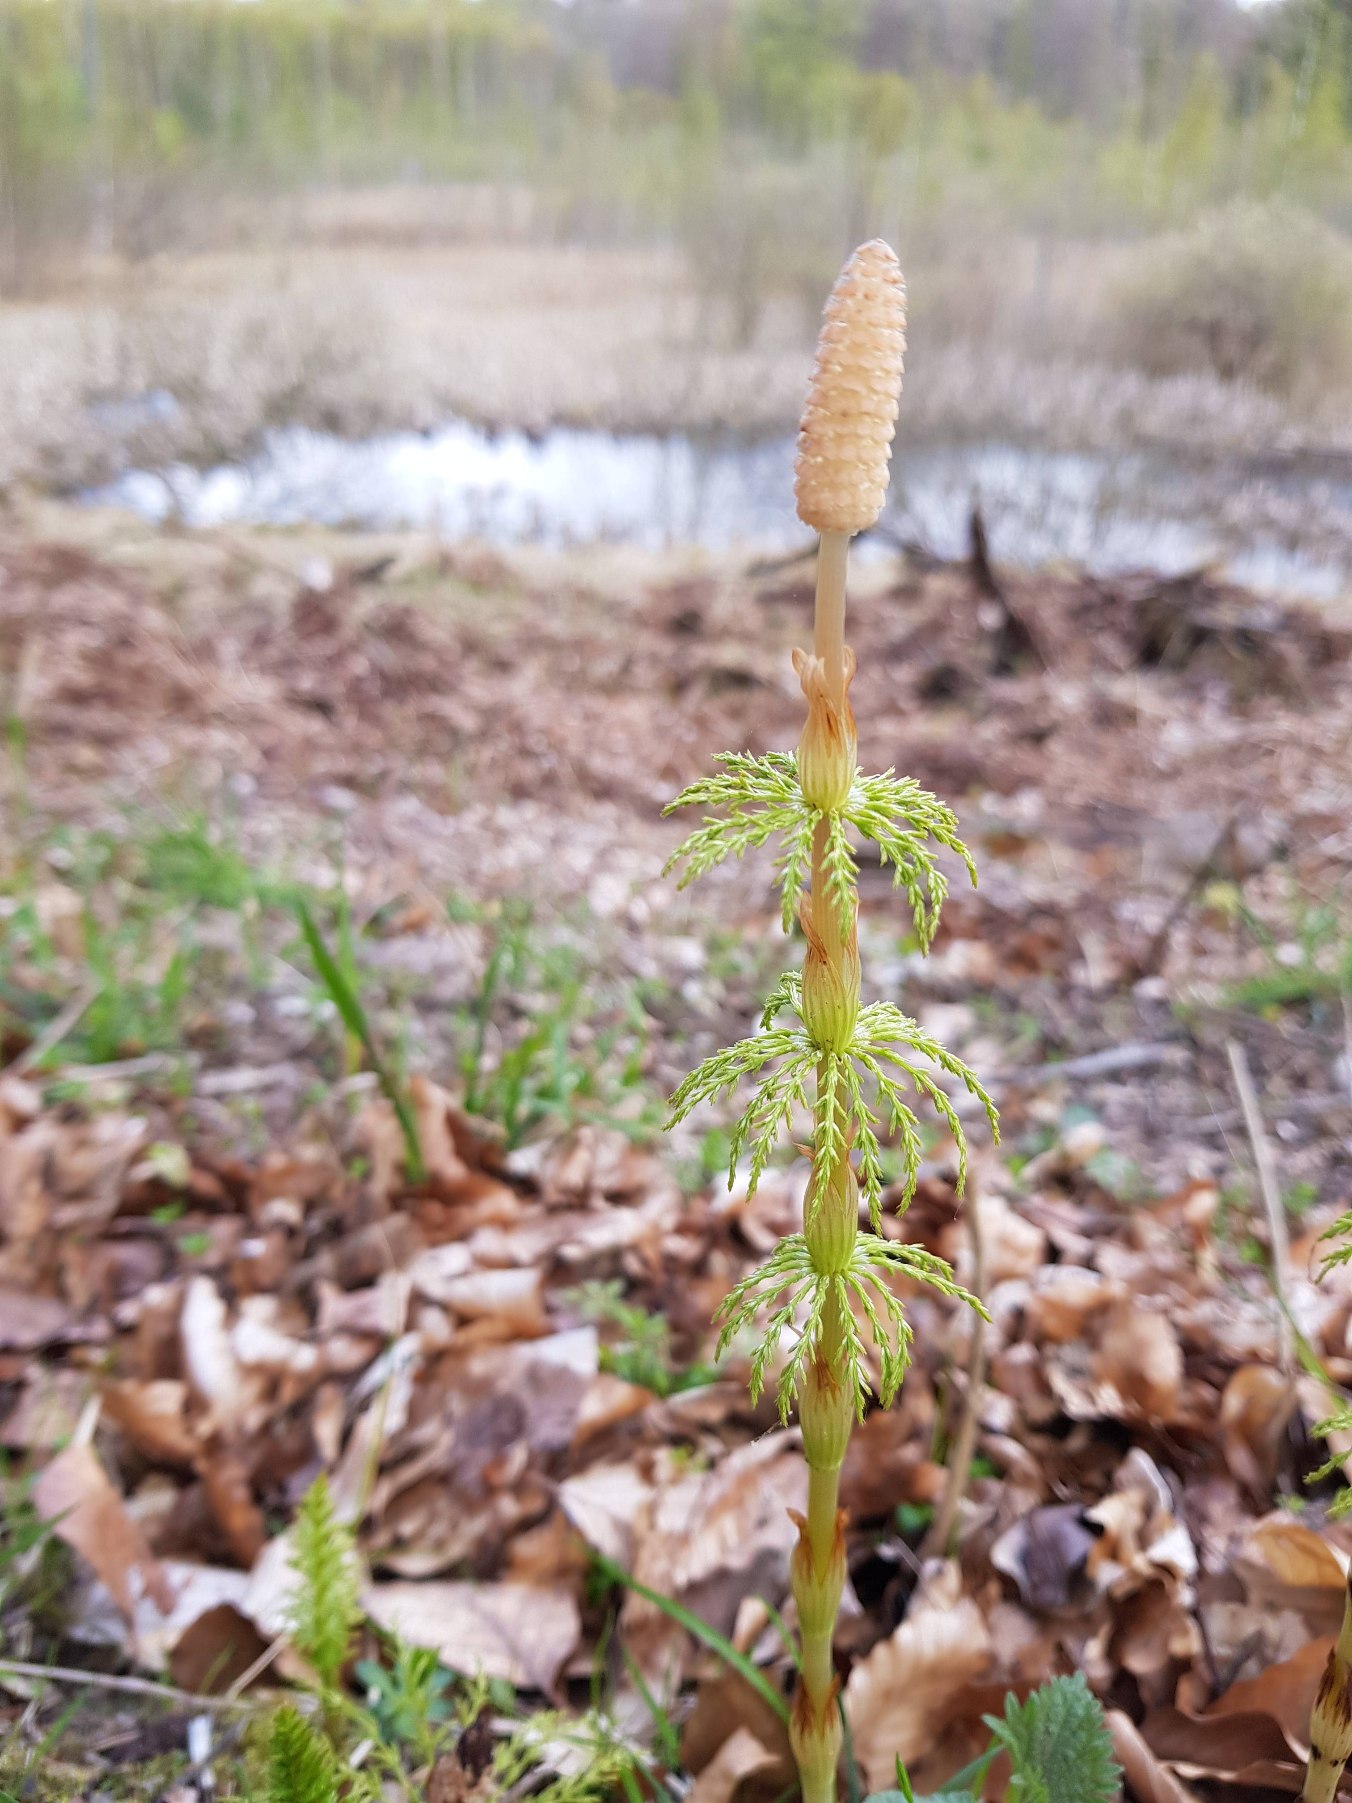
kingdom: Plantae
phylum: Tracheophyta
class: Polypodiopsida
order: Equisetales
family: Equisetaceae
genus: Equisetum
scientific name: Equisetum sylvaticum
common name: Skov-padderok
